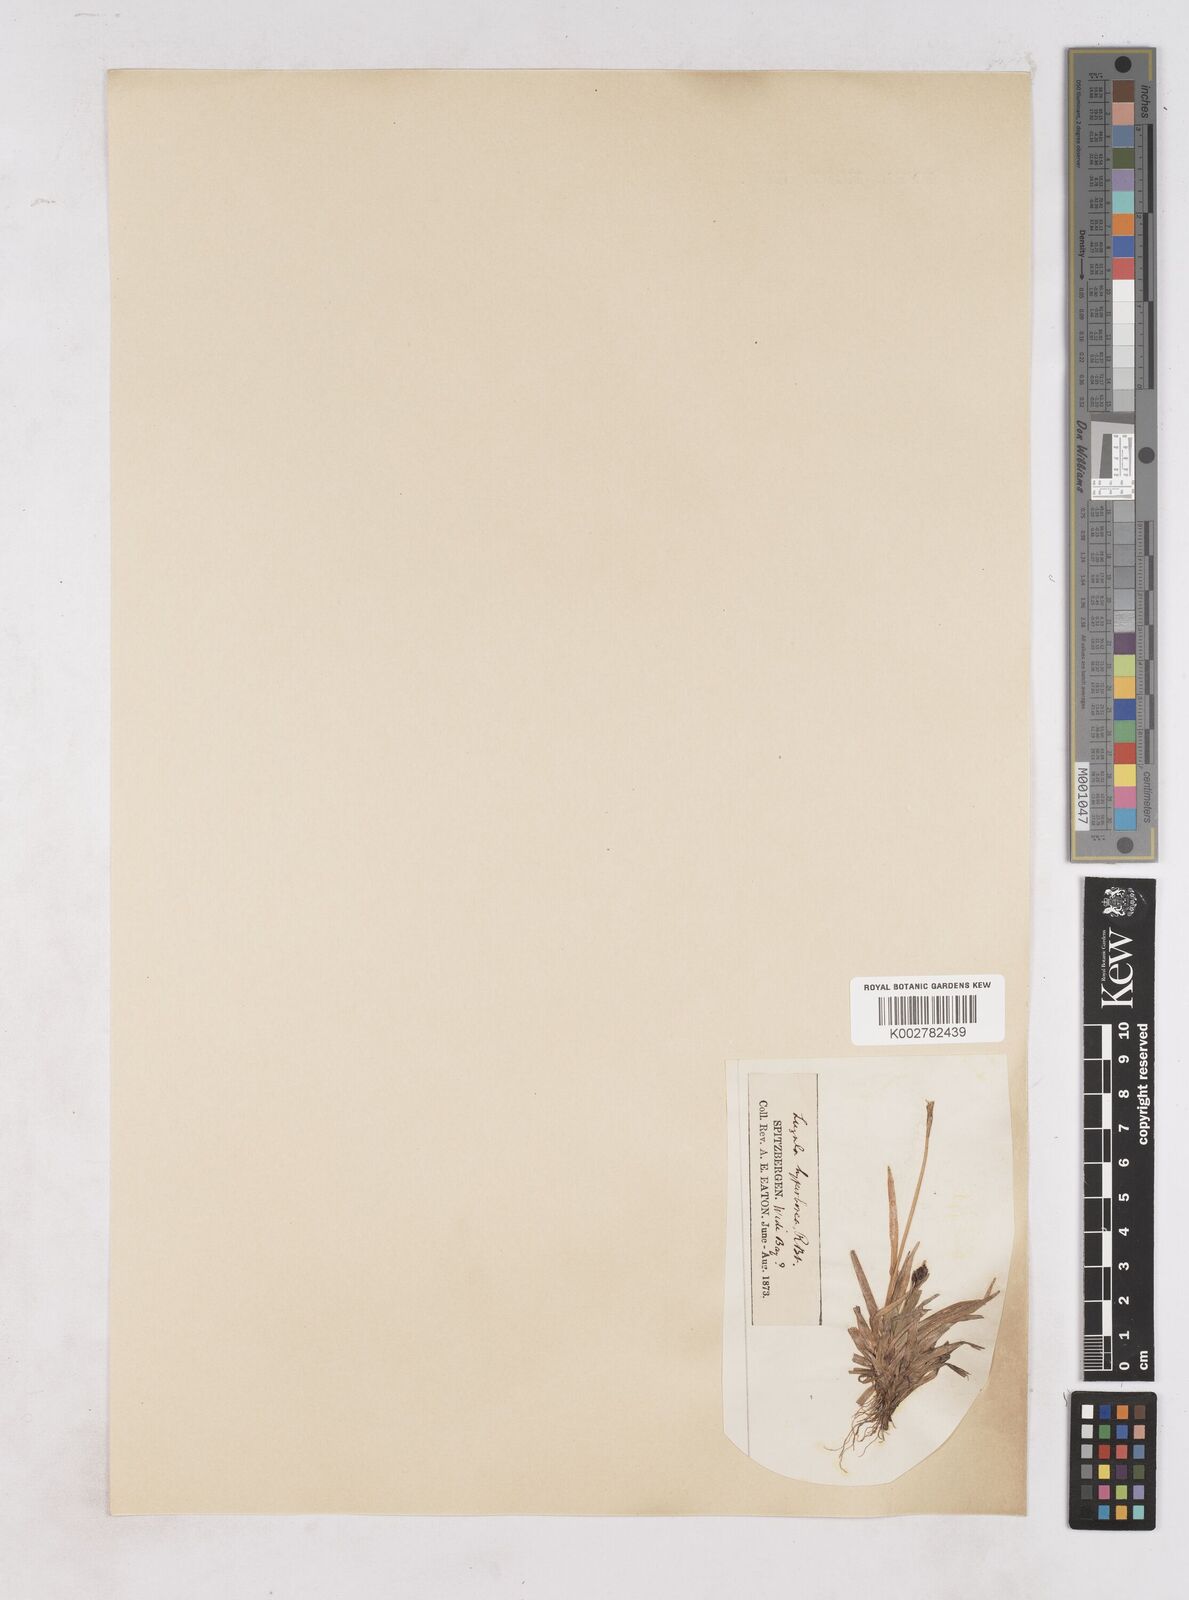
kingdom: Plantae
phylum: Tracheophyta
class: Liliopsida
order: Poales
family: Juncaceae
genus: Luzula
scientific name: Luzula nivalis
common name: Arctic woodrush
